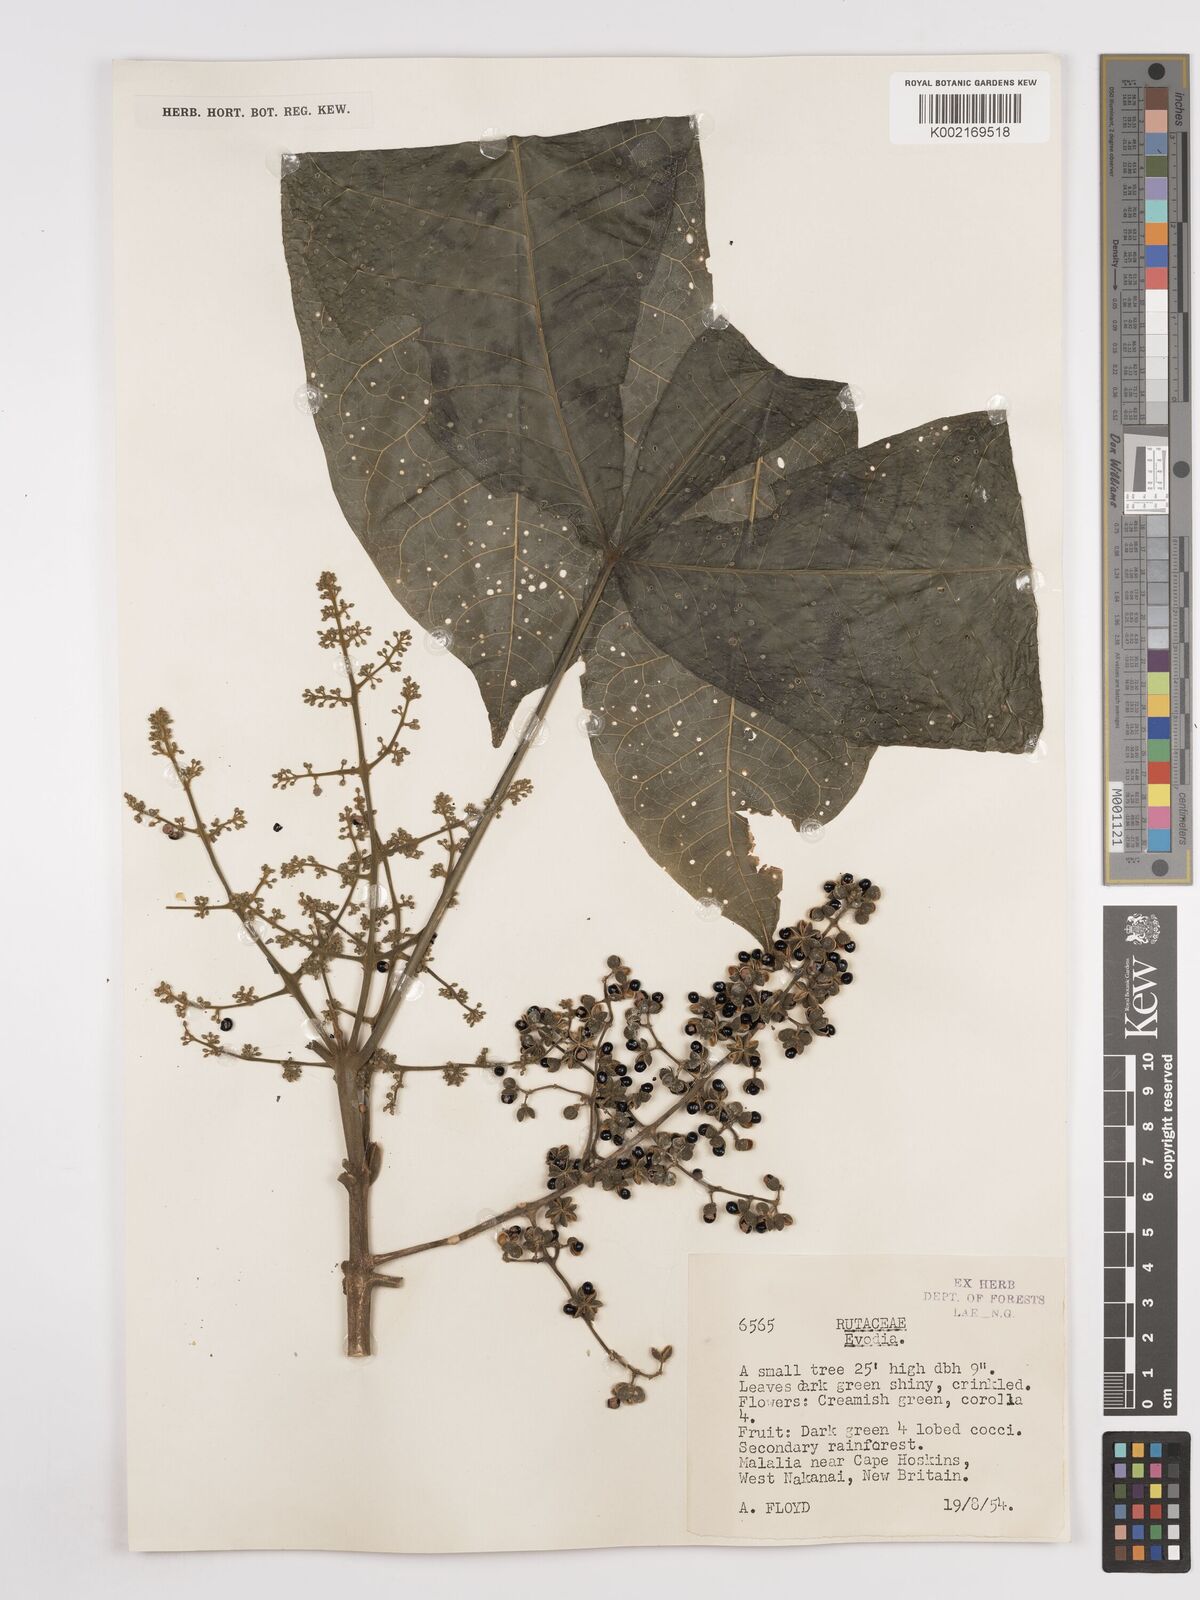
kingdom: Plantae
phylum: Tracheophyta
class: Magnoliopsida
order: Sapindales
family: Rutaceae
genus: Euodia
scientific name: Euodia
